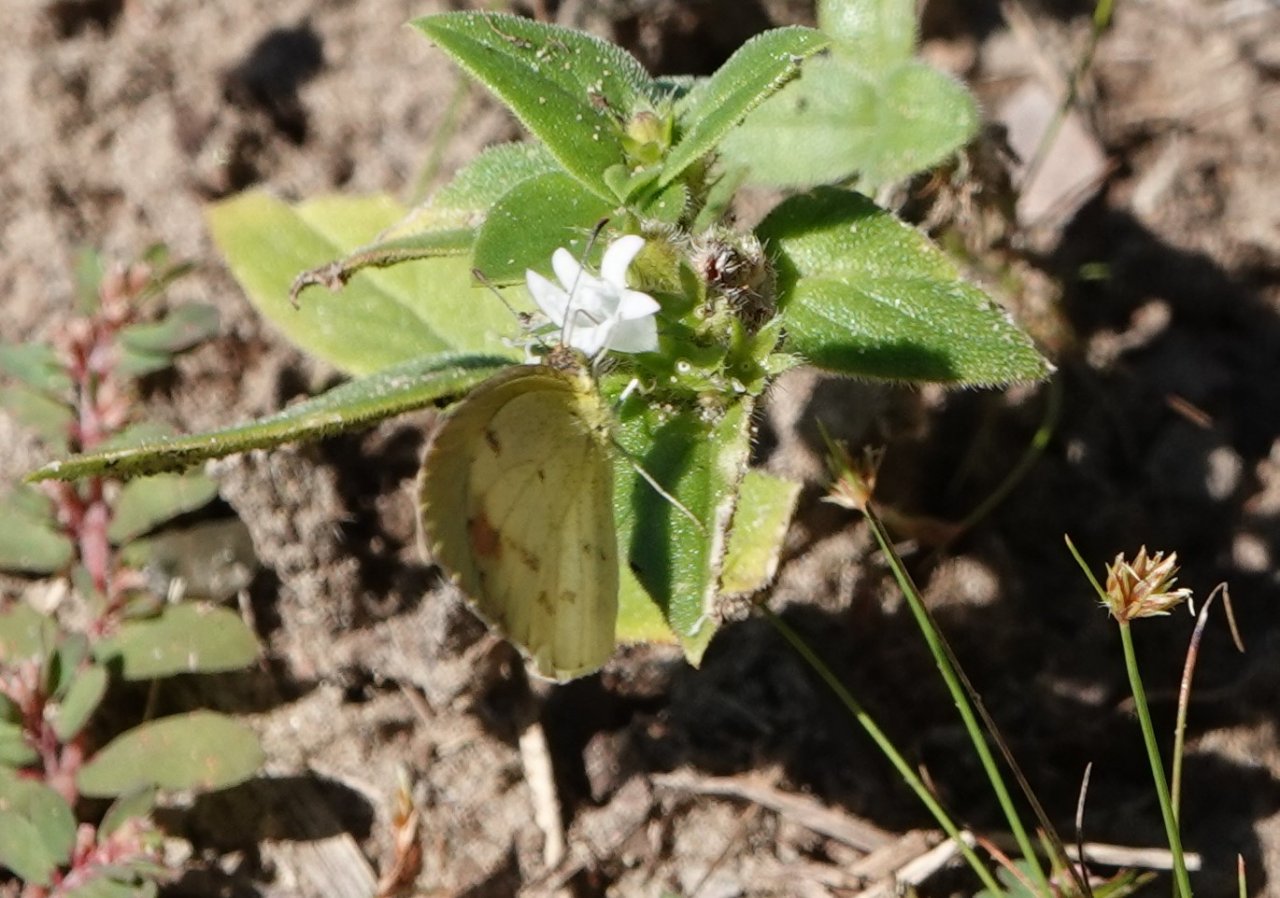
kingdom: Animalia
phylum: Arthropoda
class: Insecta
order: Lepidoptera
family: Pieridae
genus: Pyrisitia
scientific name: Pyrisitia lisa
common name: Little Yellow
